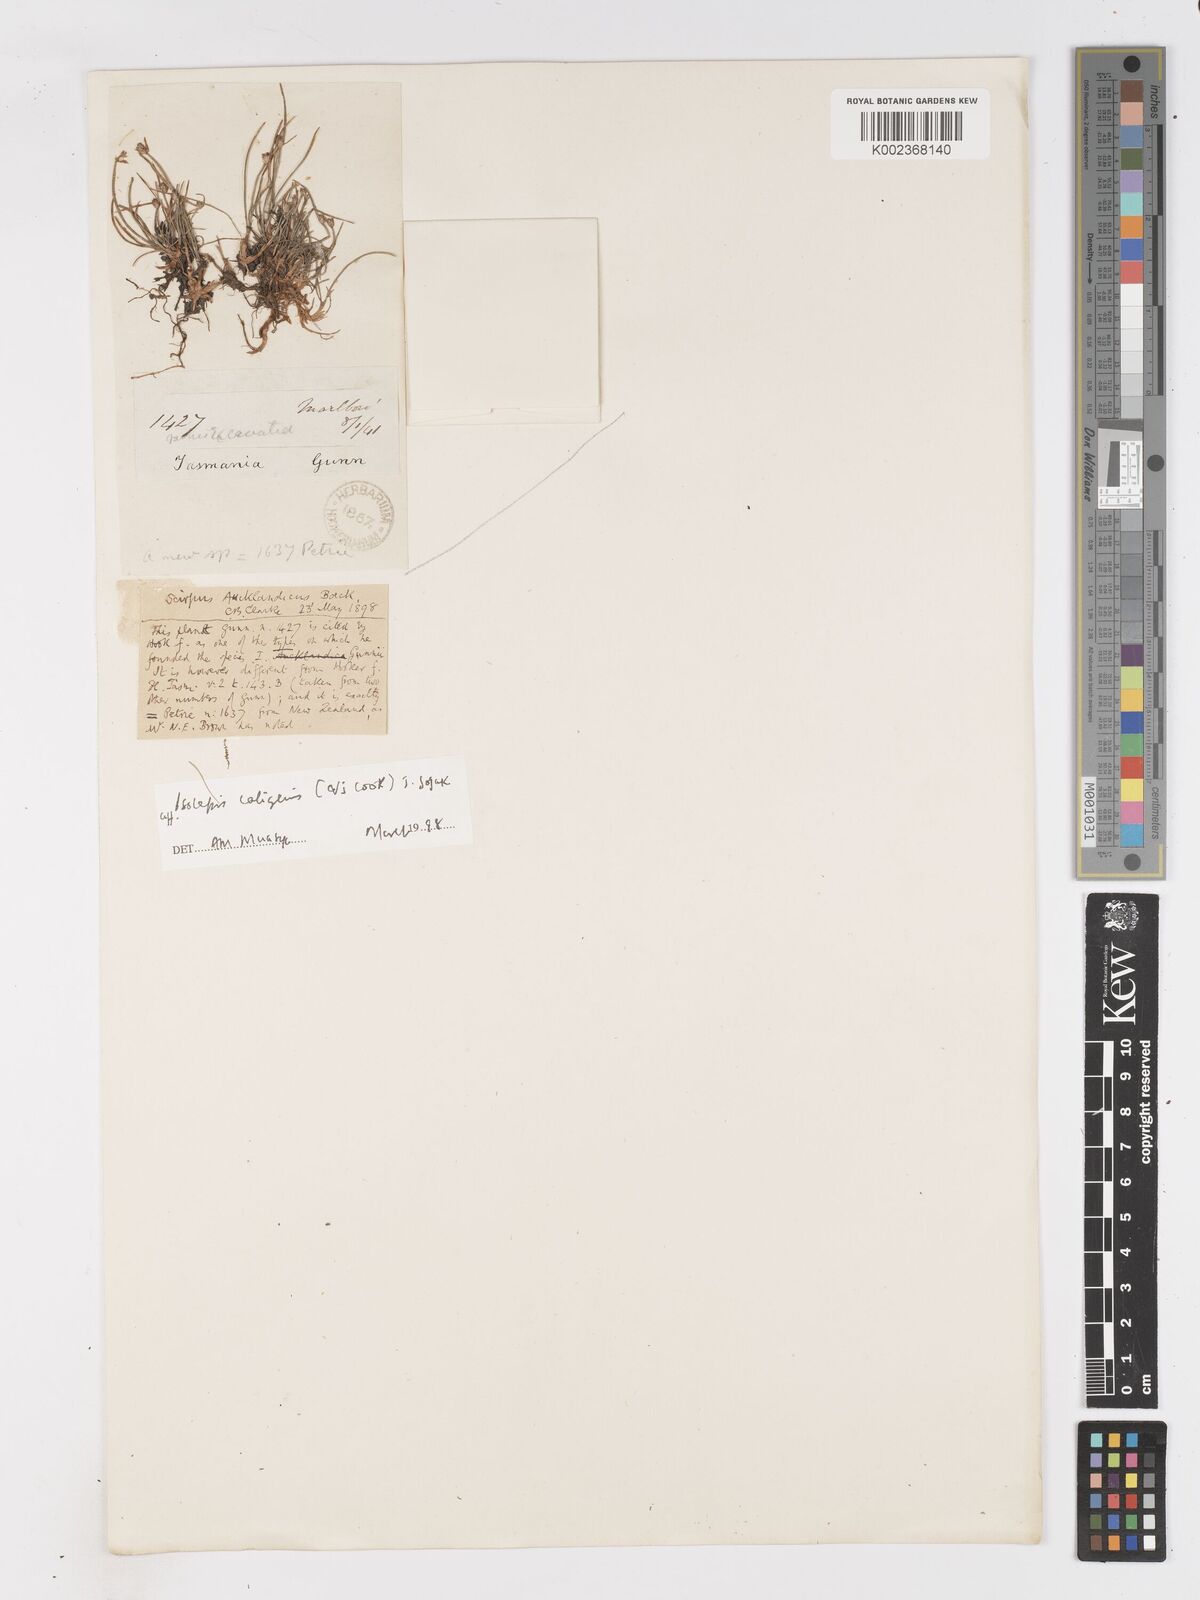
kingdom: Plantae
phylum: Tracheophyta
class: Liliopsida
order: Poales
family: Cyperaceae
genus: Isolepis
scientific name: Isolepis aucklandica
